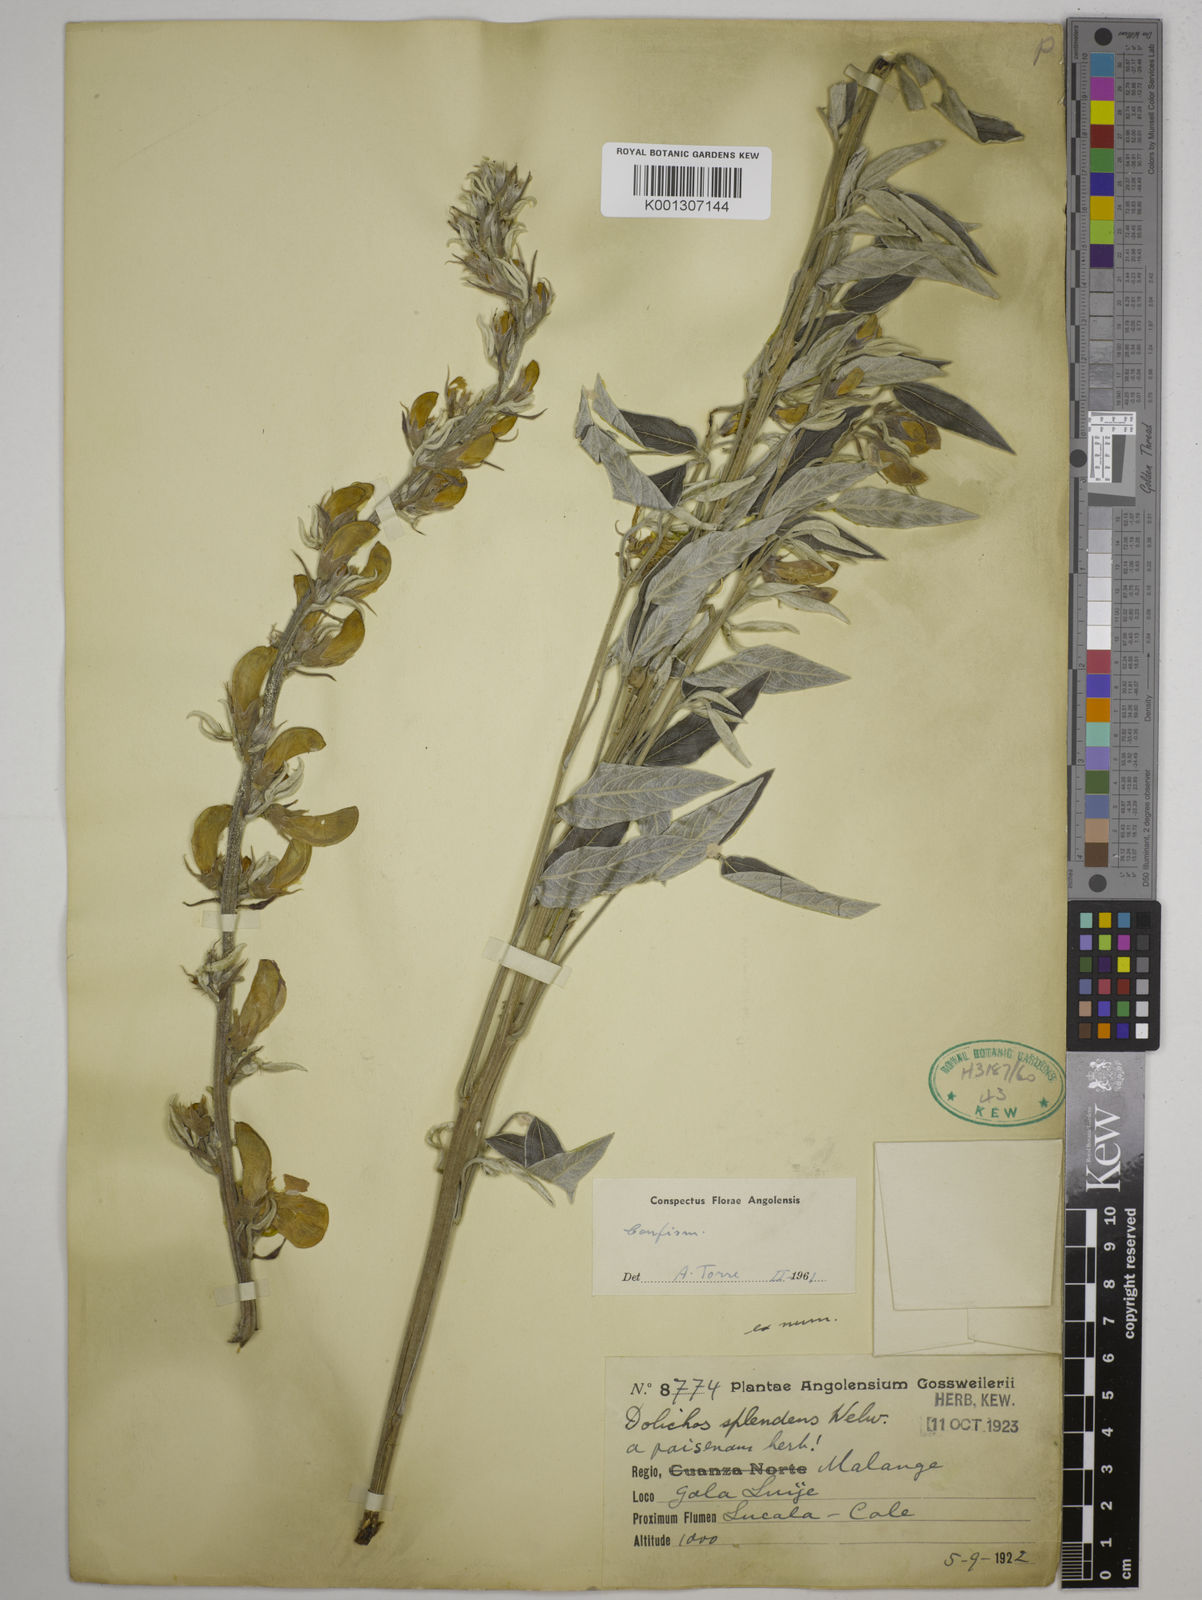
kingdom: Plantae
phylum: Tracheophyta
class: Magnoliopsida
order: Fabales
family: Fabaceae
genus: Dolichos
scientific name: Dolichos splendens
